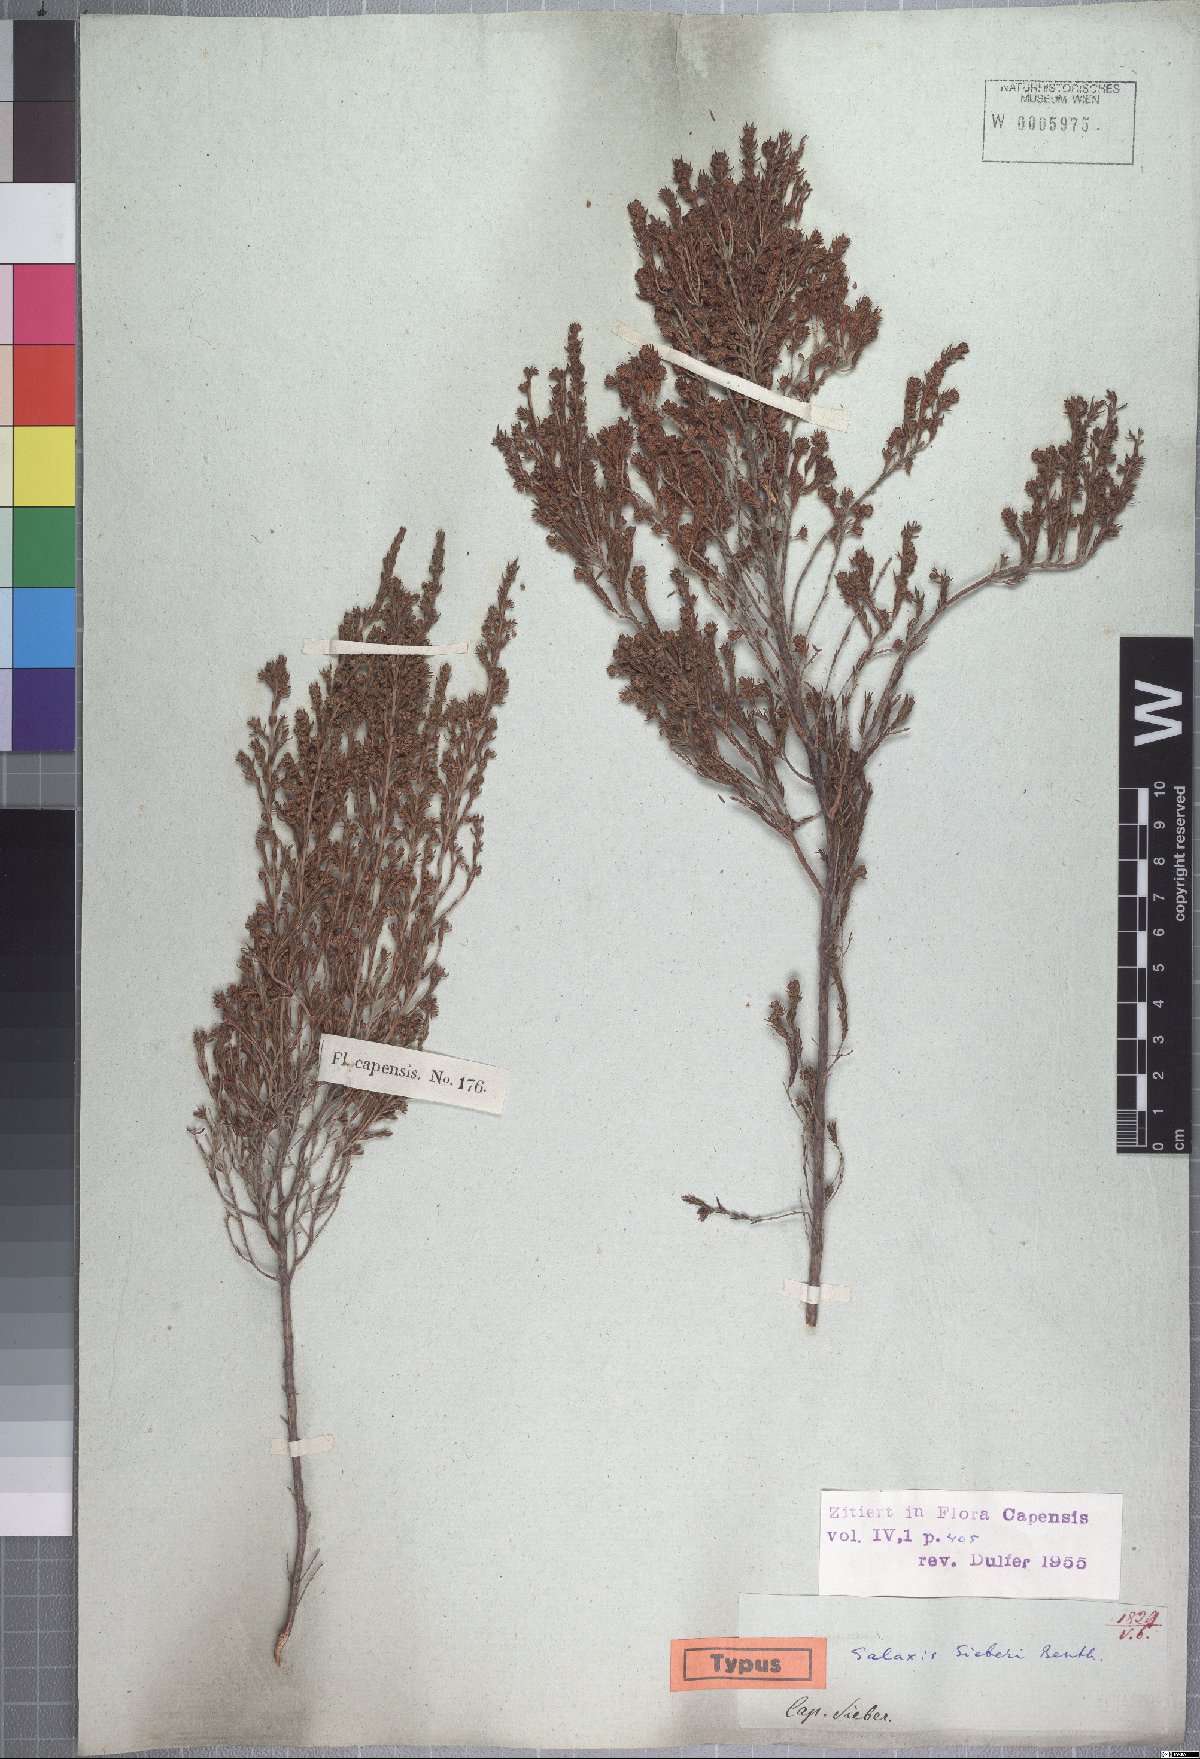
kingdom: Plantae
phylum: Tracheophyta
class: Magnoliopsida
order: Ericales
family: Ericaceae
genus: Erica
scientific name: Erica axillaris
